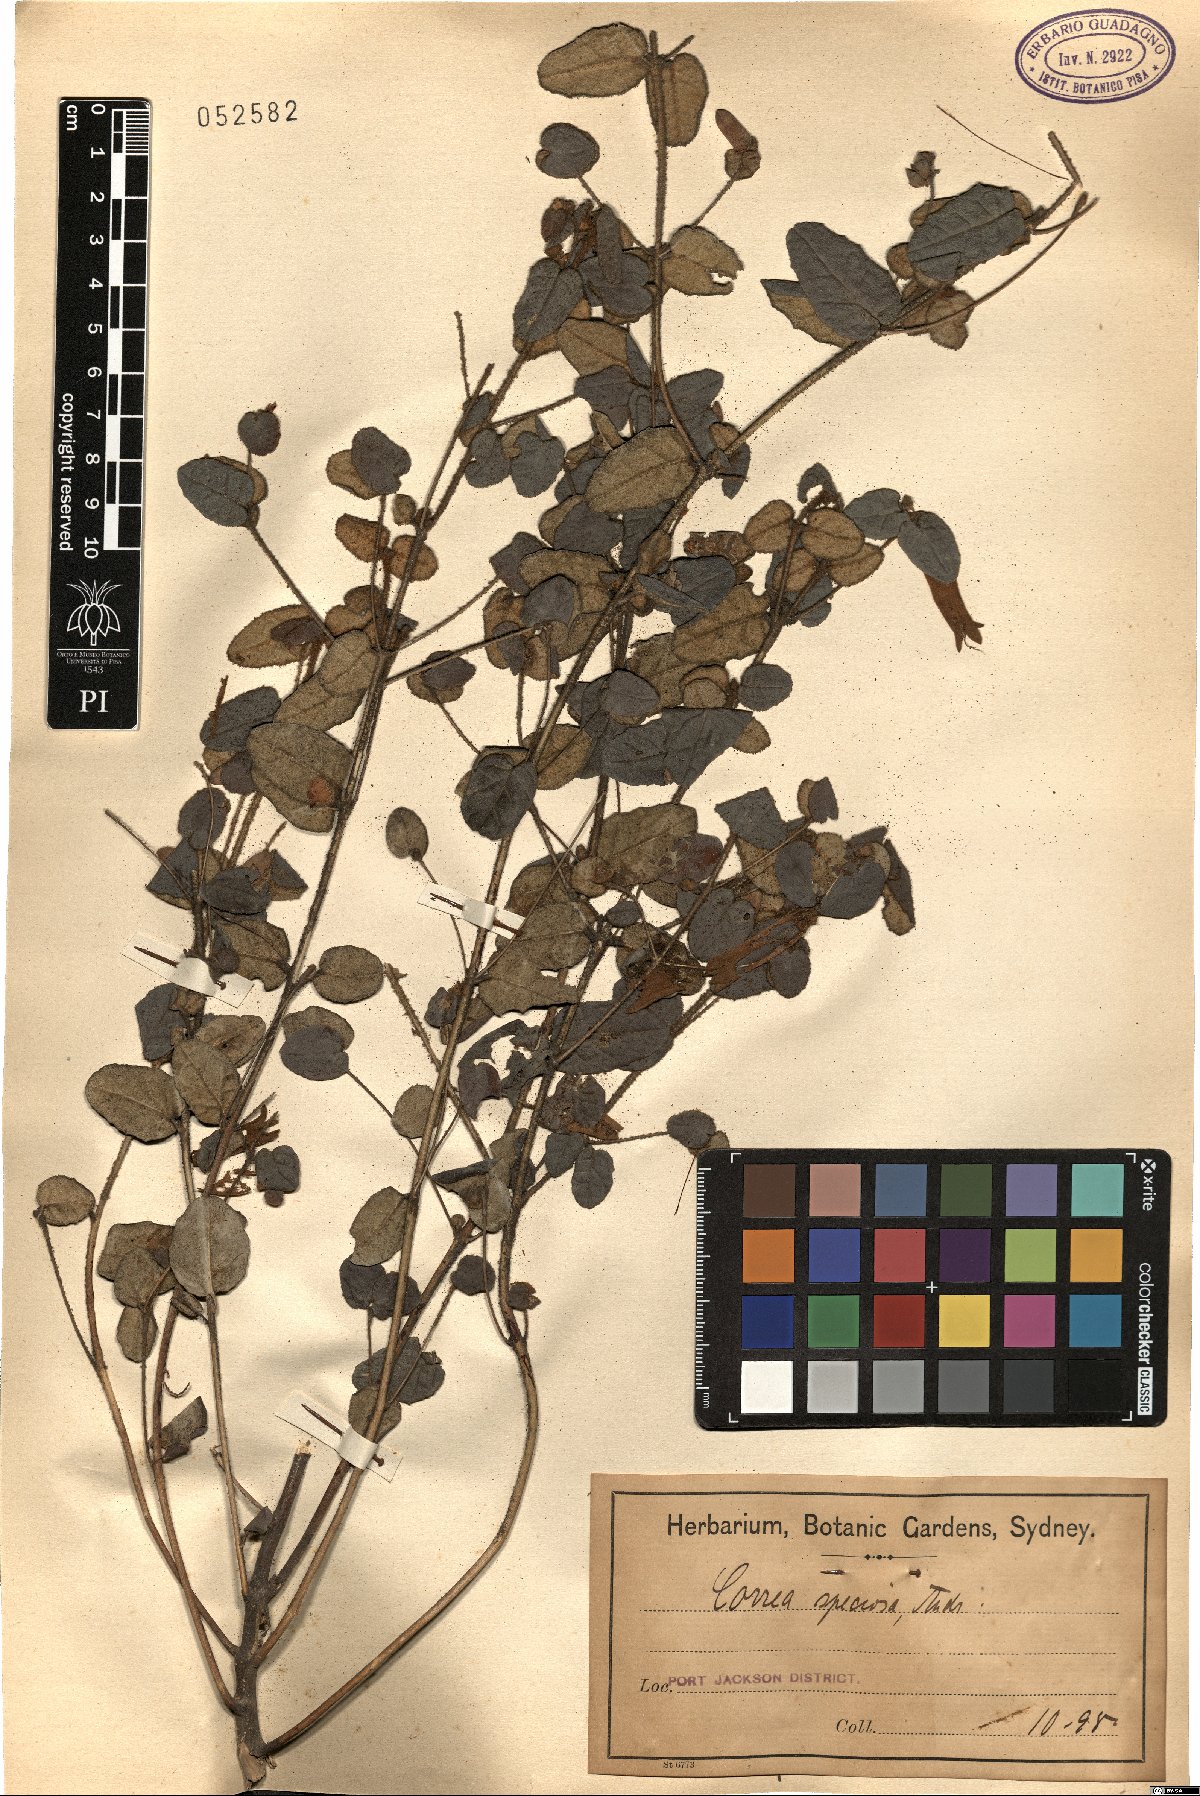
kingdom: Plantae
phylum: Tracheophyta
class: Magnoliopsida
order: Sapindales
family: Rutaceae
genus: Correa
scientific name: Correa reflexa
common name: Common correa
